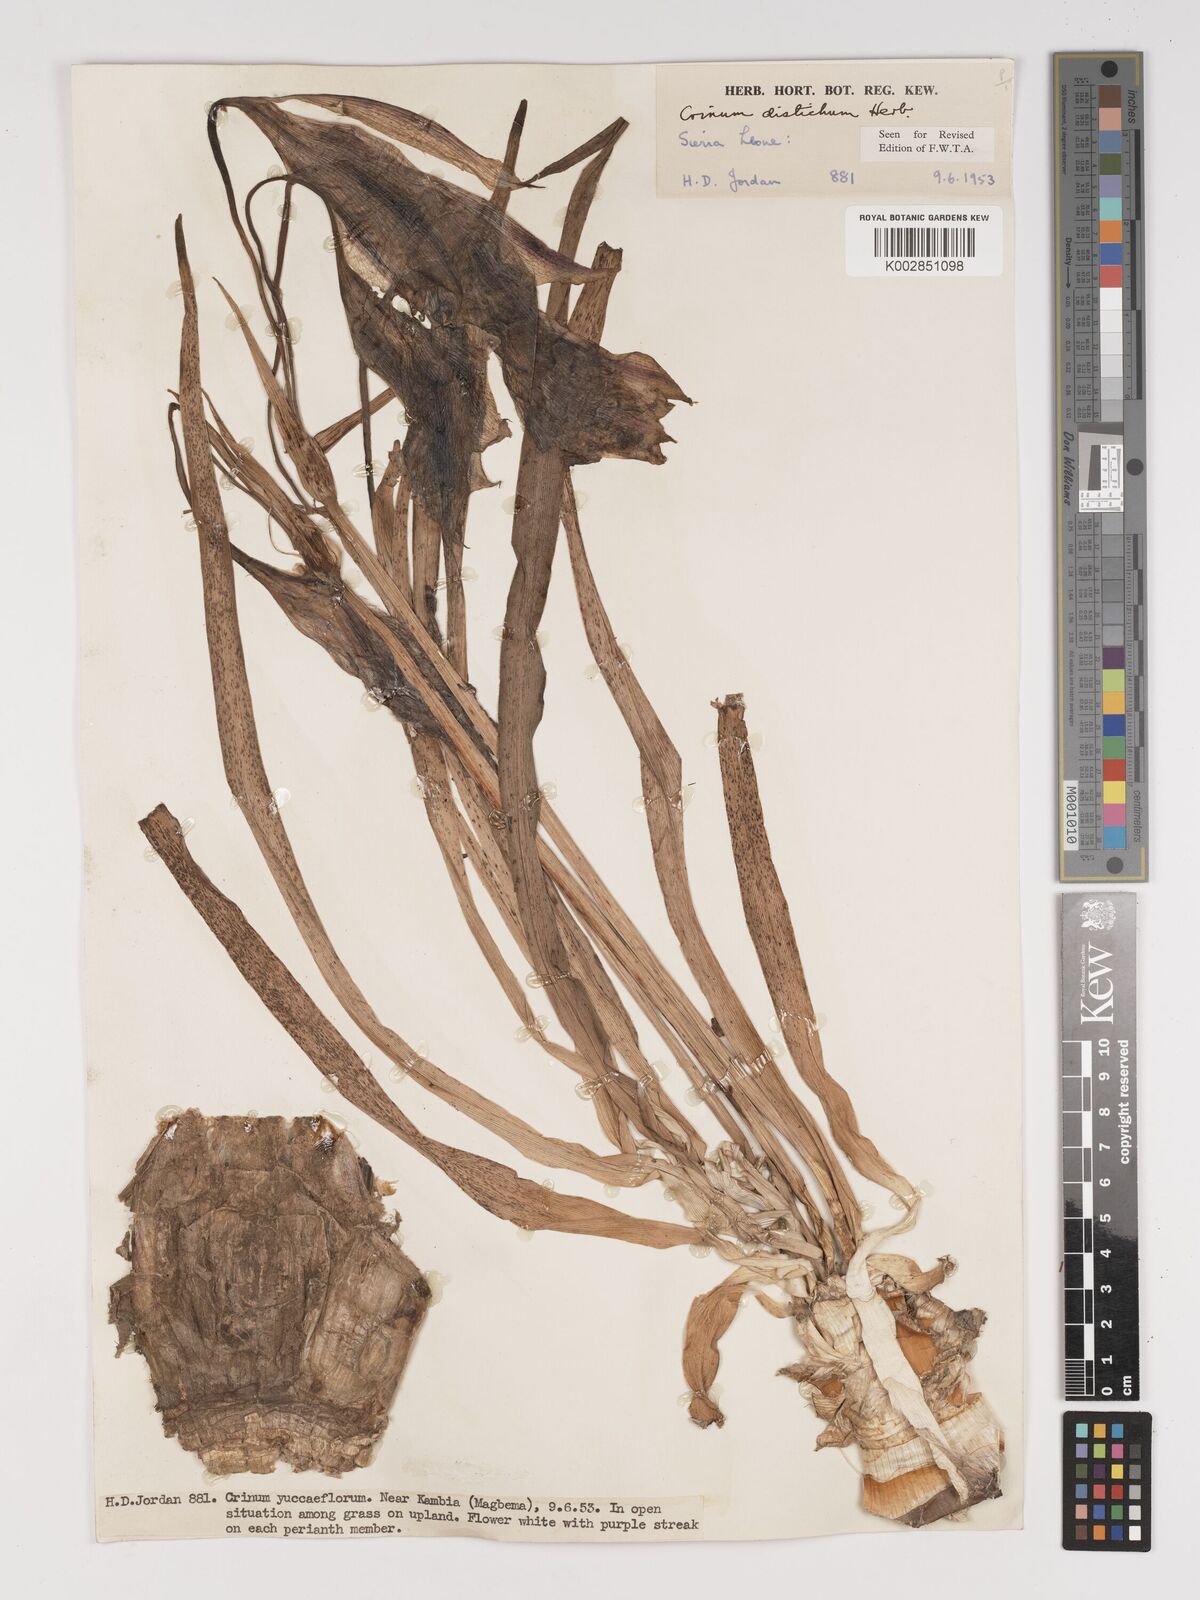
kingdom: Plantae
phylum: Tracheophyta
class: Liliopsida
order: Asparagales
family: Amaryllidaceae
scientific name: Amaryllidaceae
